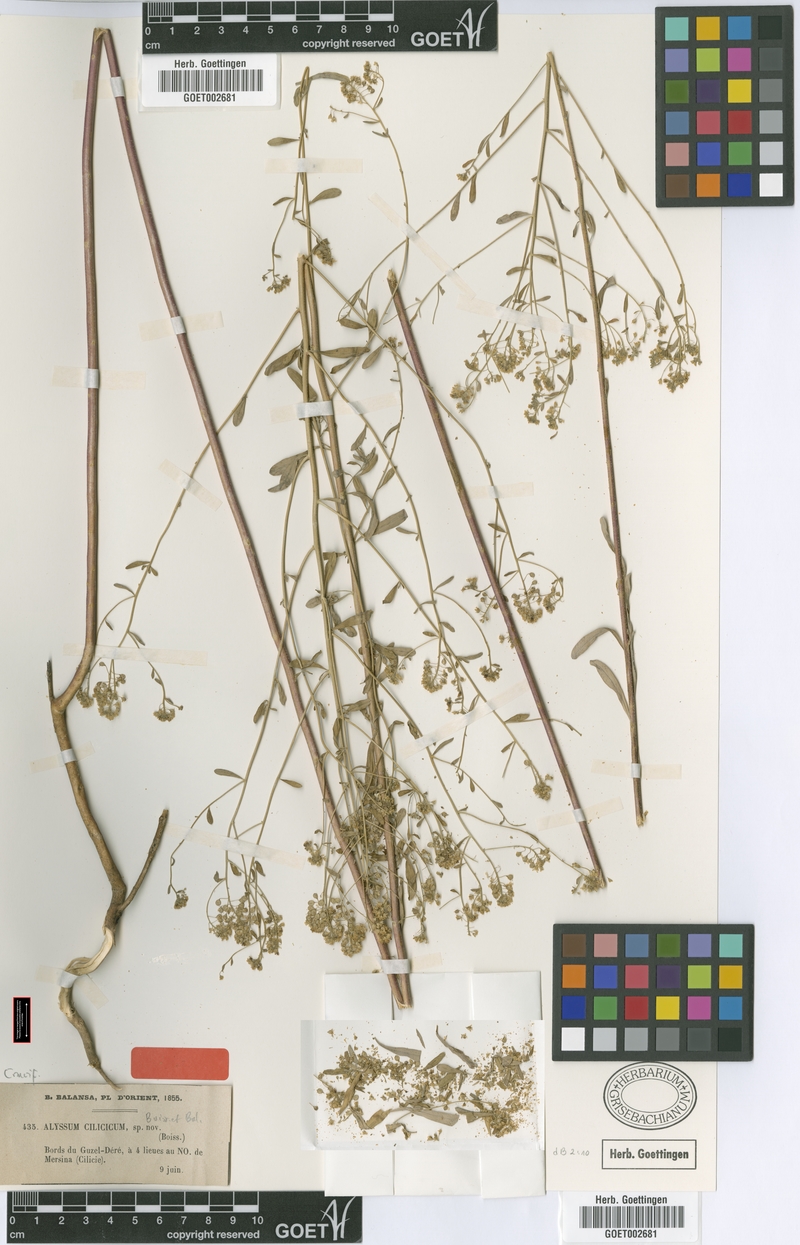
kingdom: Plantae
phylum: Tracheophyta
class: Magnoliopsida
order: Brassicales
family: Brassicaceae
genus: Odontarrhena
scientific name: Odontarrhena cilicica
